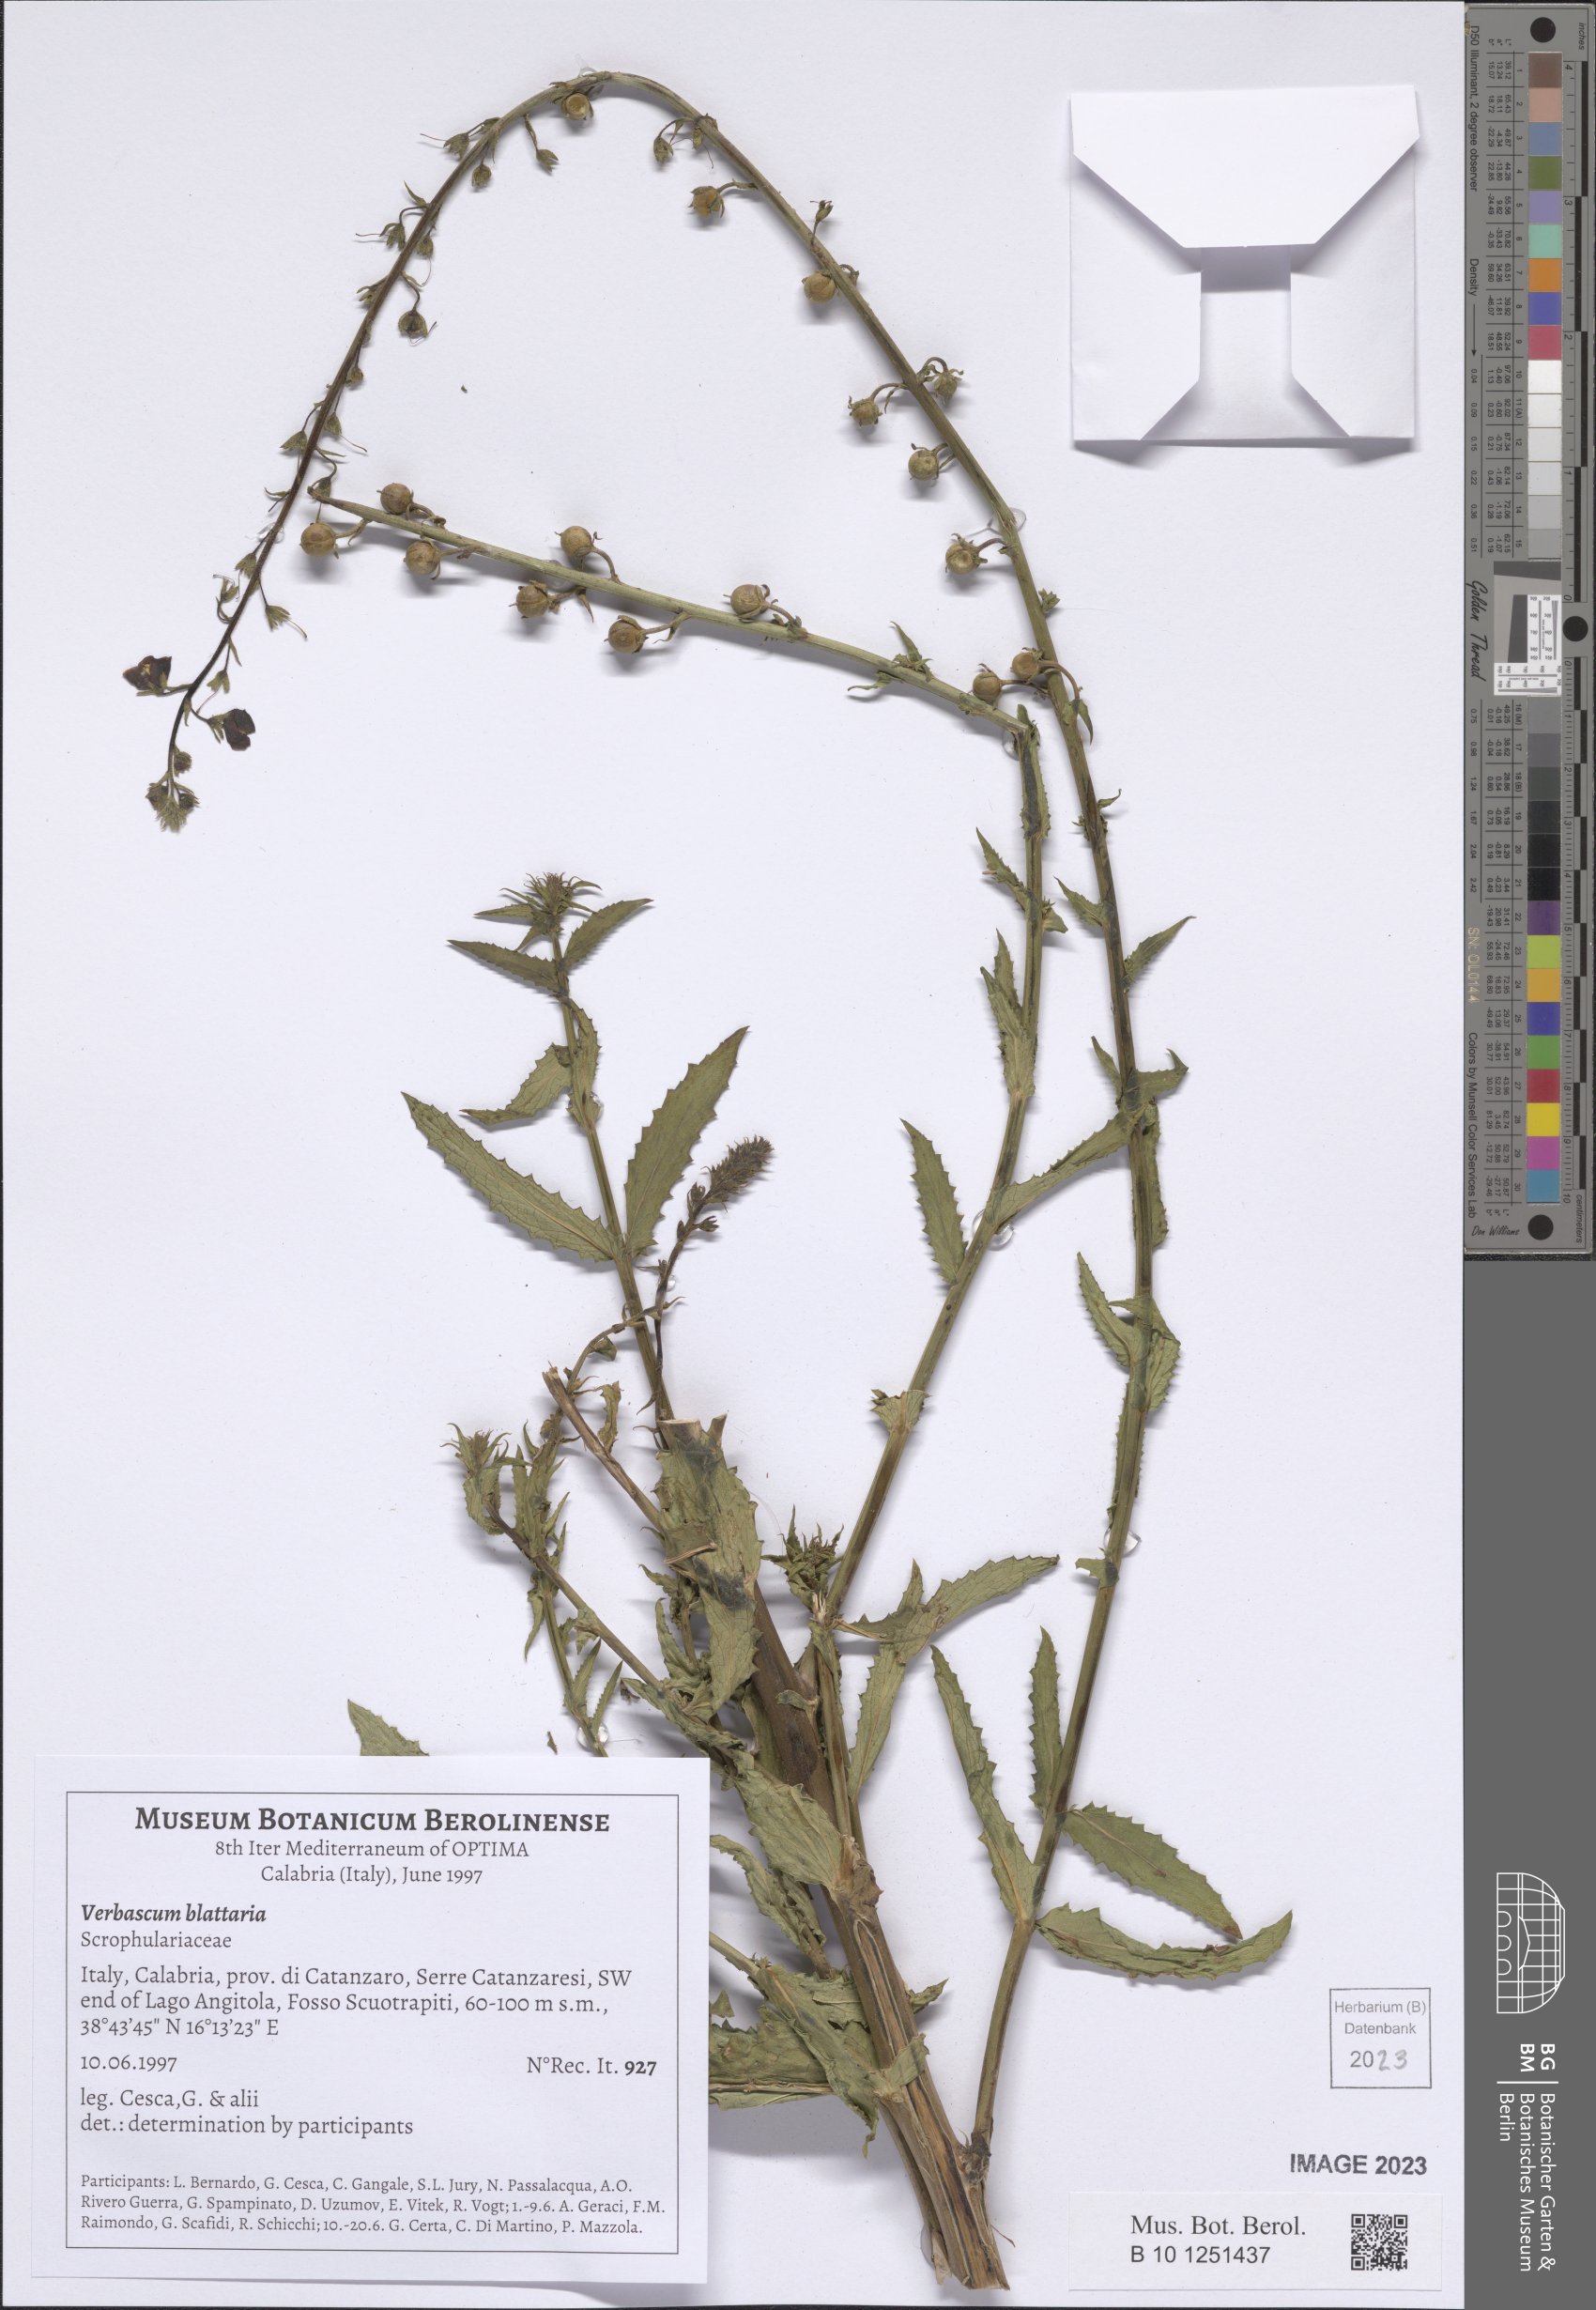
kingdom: Plantae
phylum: Tracheophyta
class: Magnoliopsida
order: Lamiales
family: Scrophulariaceae
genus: Verbascum
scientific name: Verbascum blattaria
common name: Moth mullein
